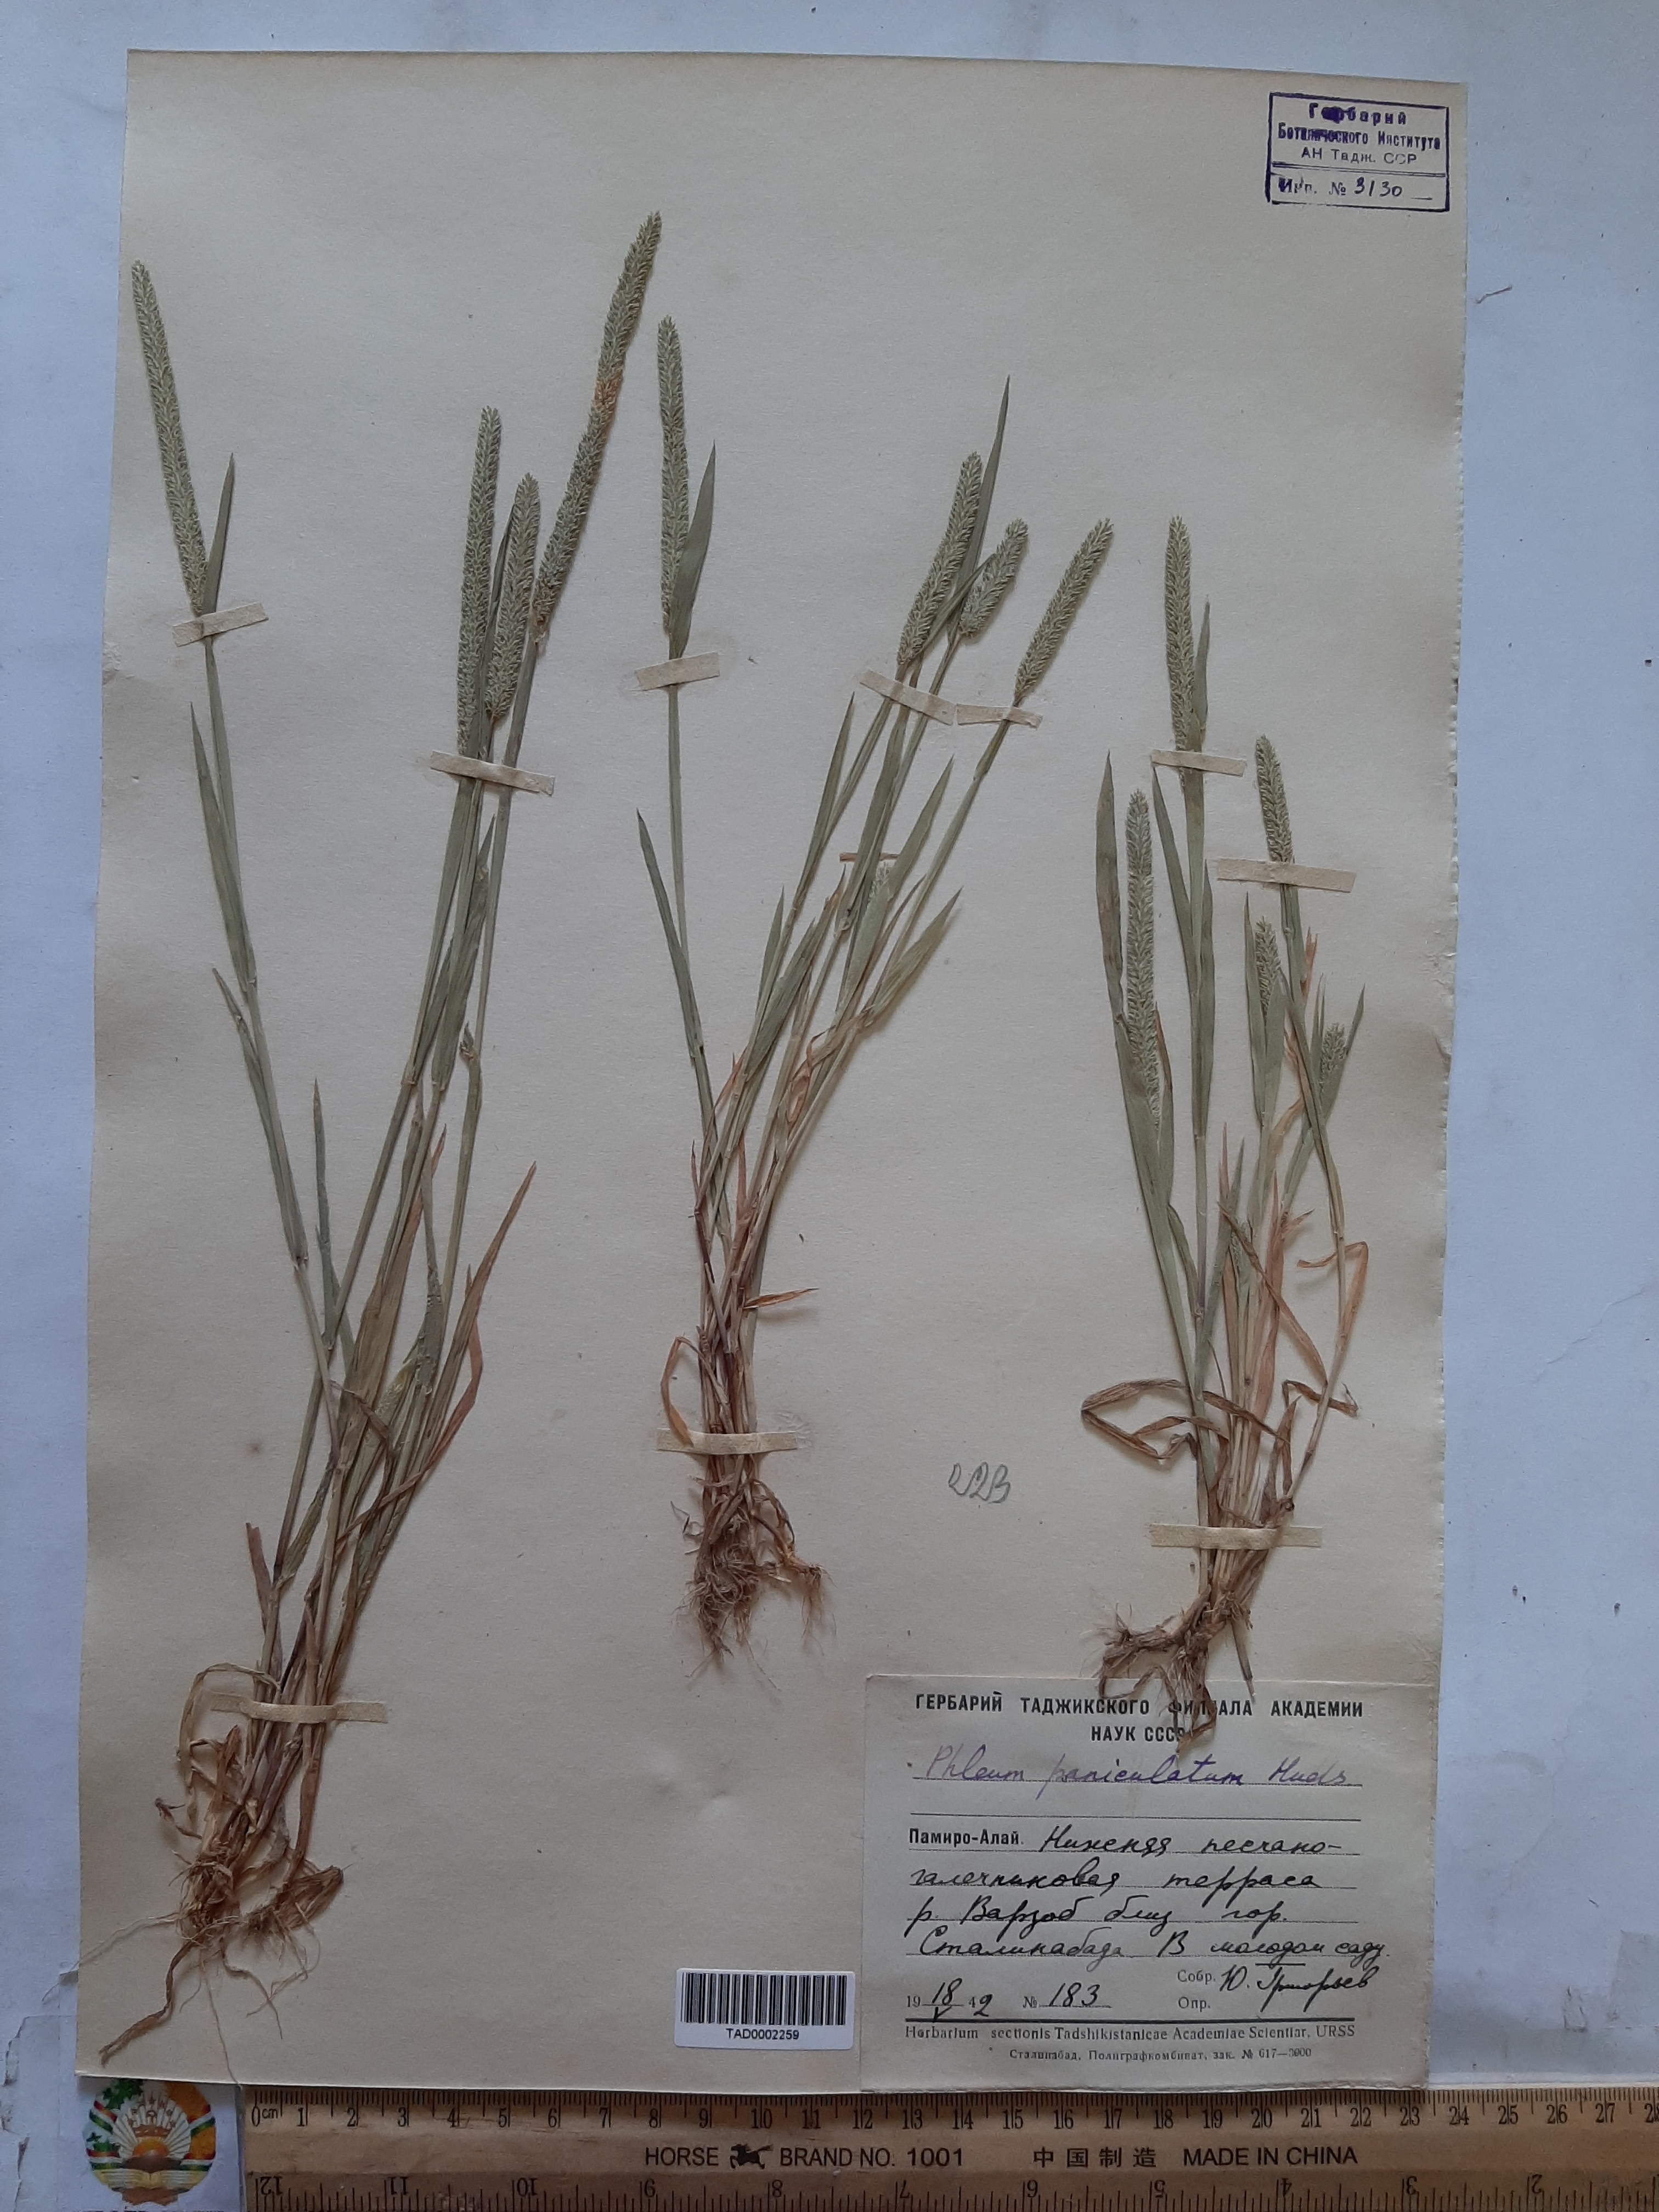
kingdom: Plantae
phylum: Tracheophyta
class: Liliopsida
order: Poales
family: Poaceae
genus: Phleum
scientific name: Phleum paniculatum
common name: British timothy
